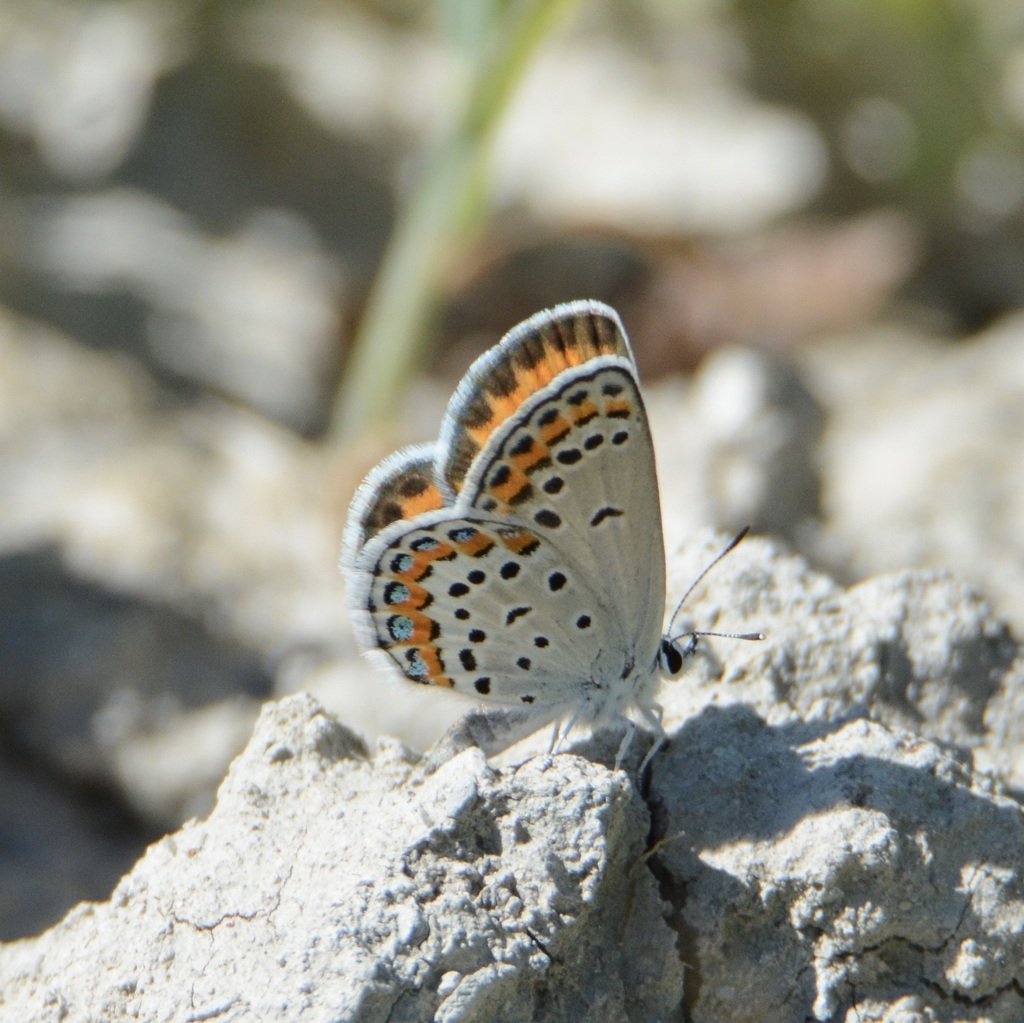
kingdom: Animalia
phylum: Arthropoda
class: Insecta
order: Lepidoptera
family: Lycaenidae
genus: Lycaeides
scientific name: Lycaeides melissa
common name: Melissa Blue
